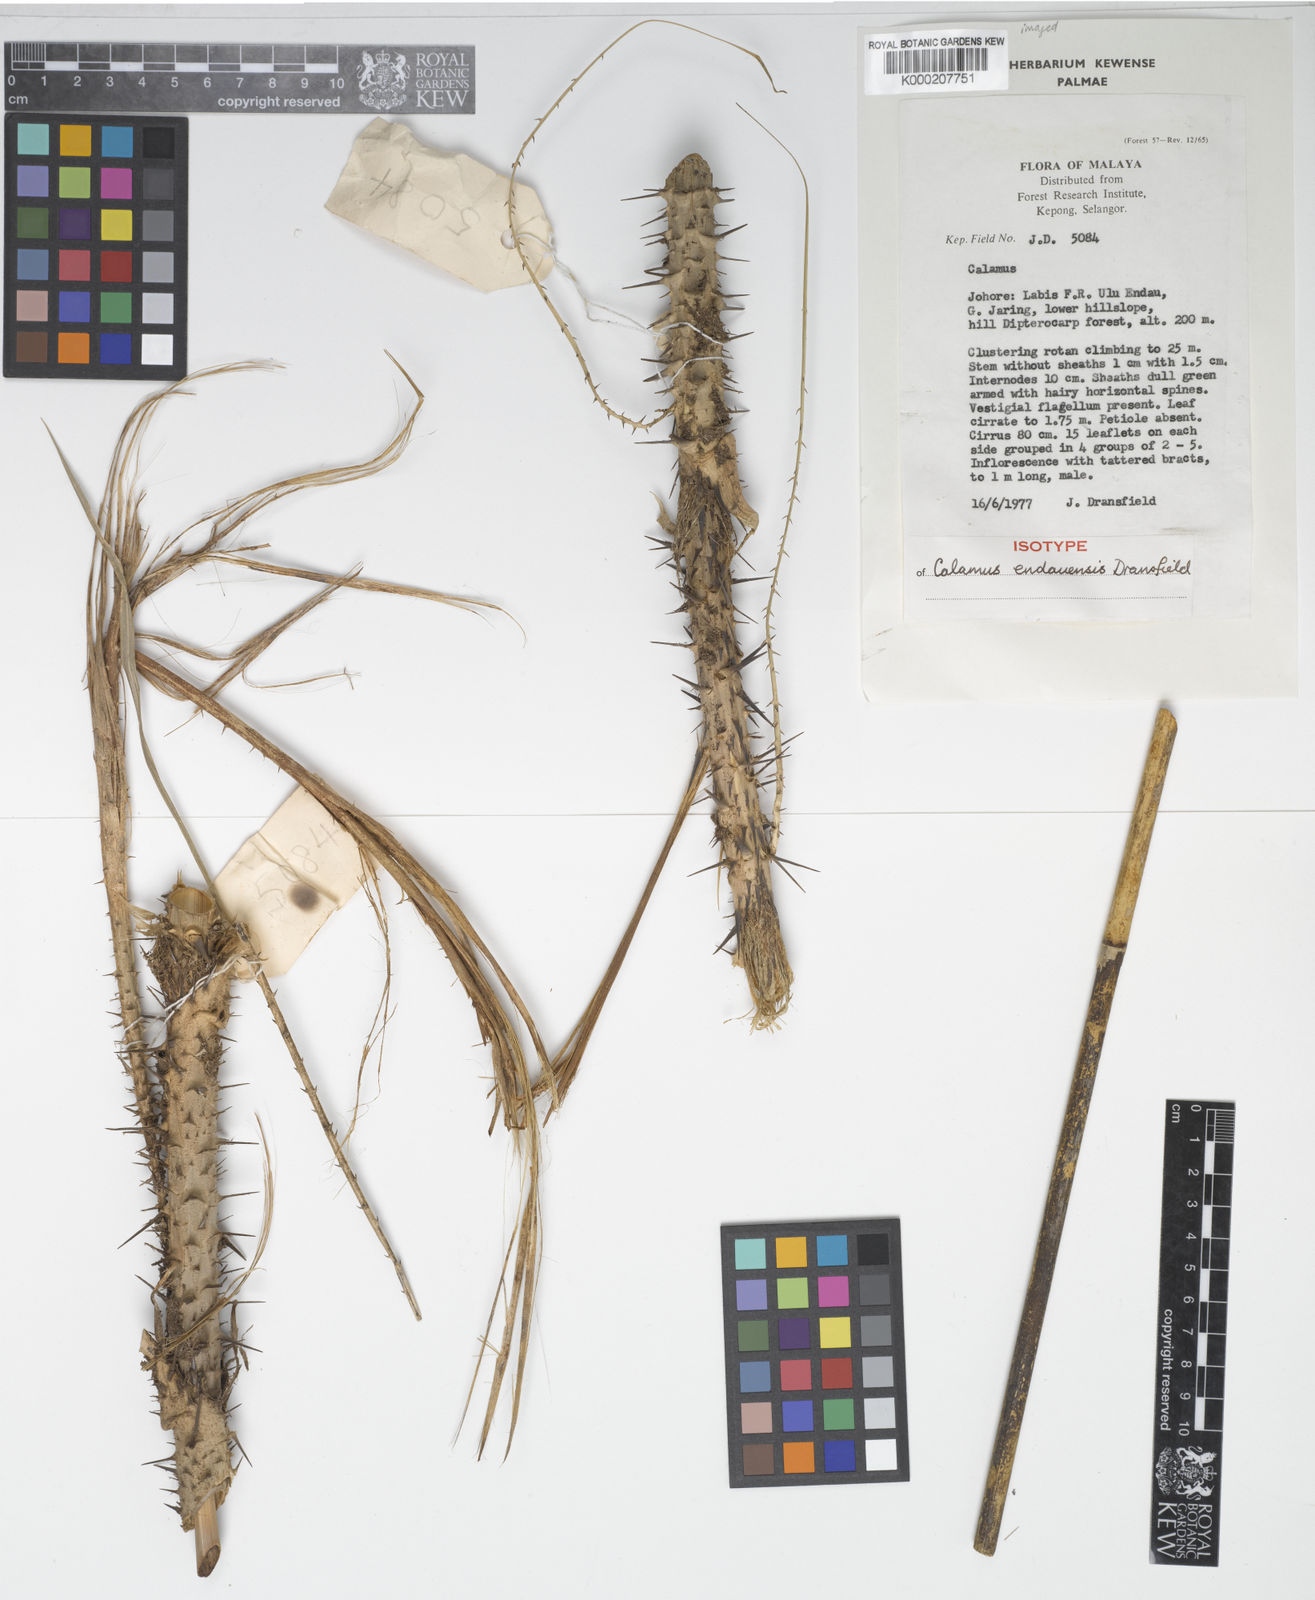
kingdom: Plantae
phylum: Tracheophyta
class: Liliopsida
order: Arecales
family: Arecaceae
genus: Calamus
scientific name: Calamus erioacanthus
